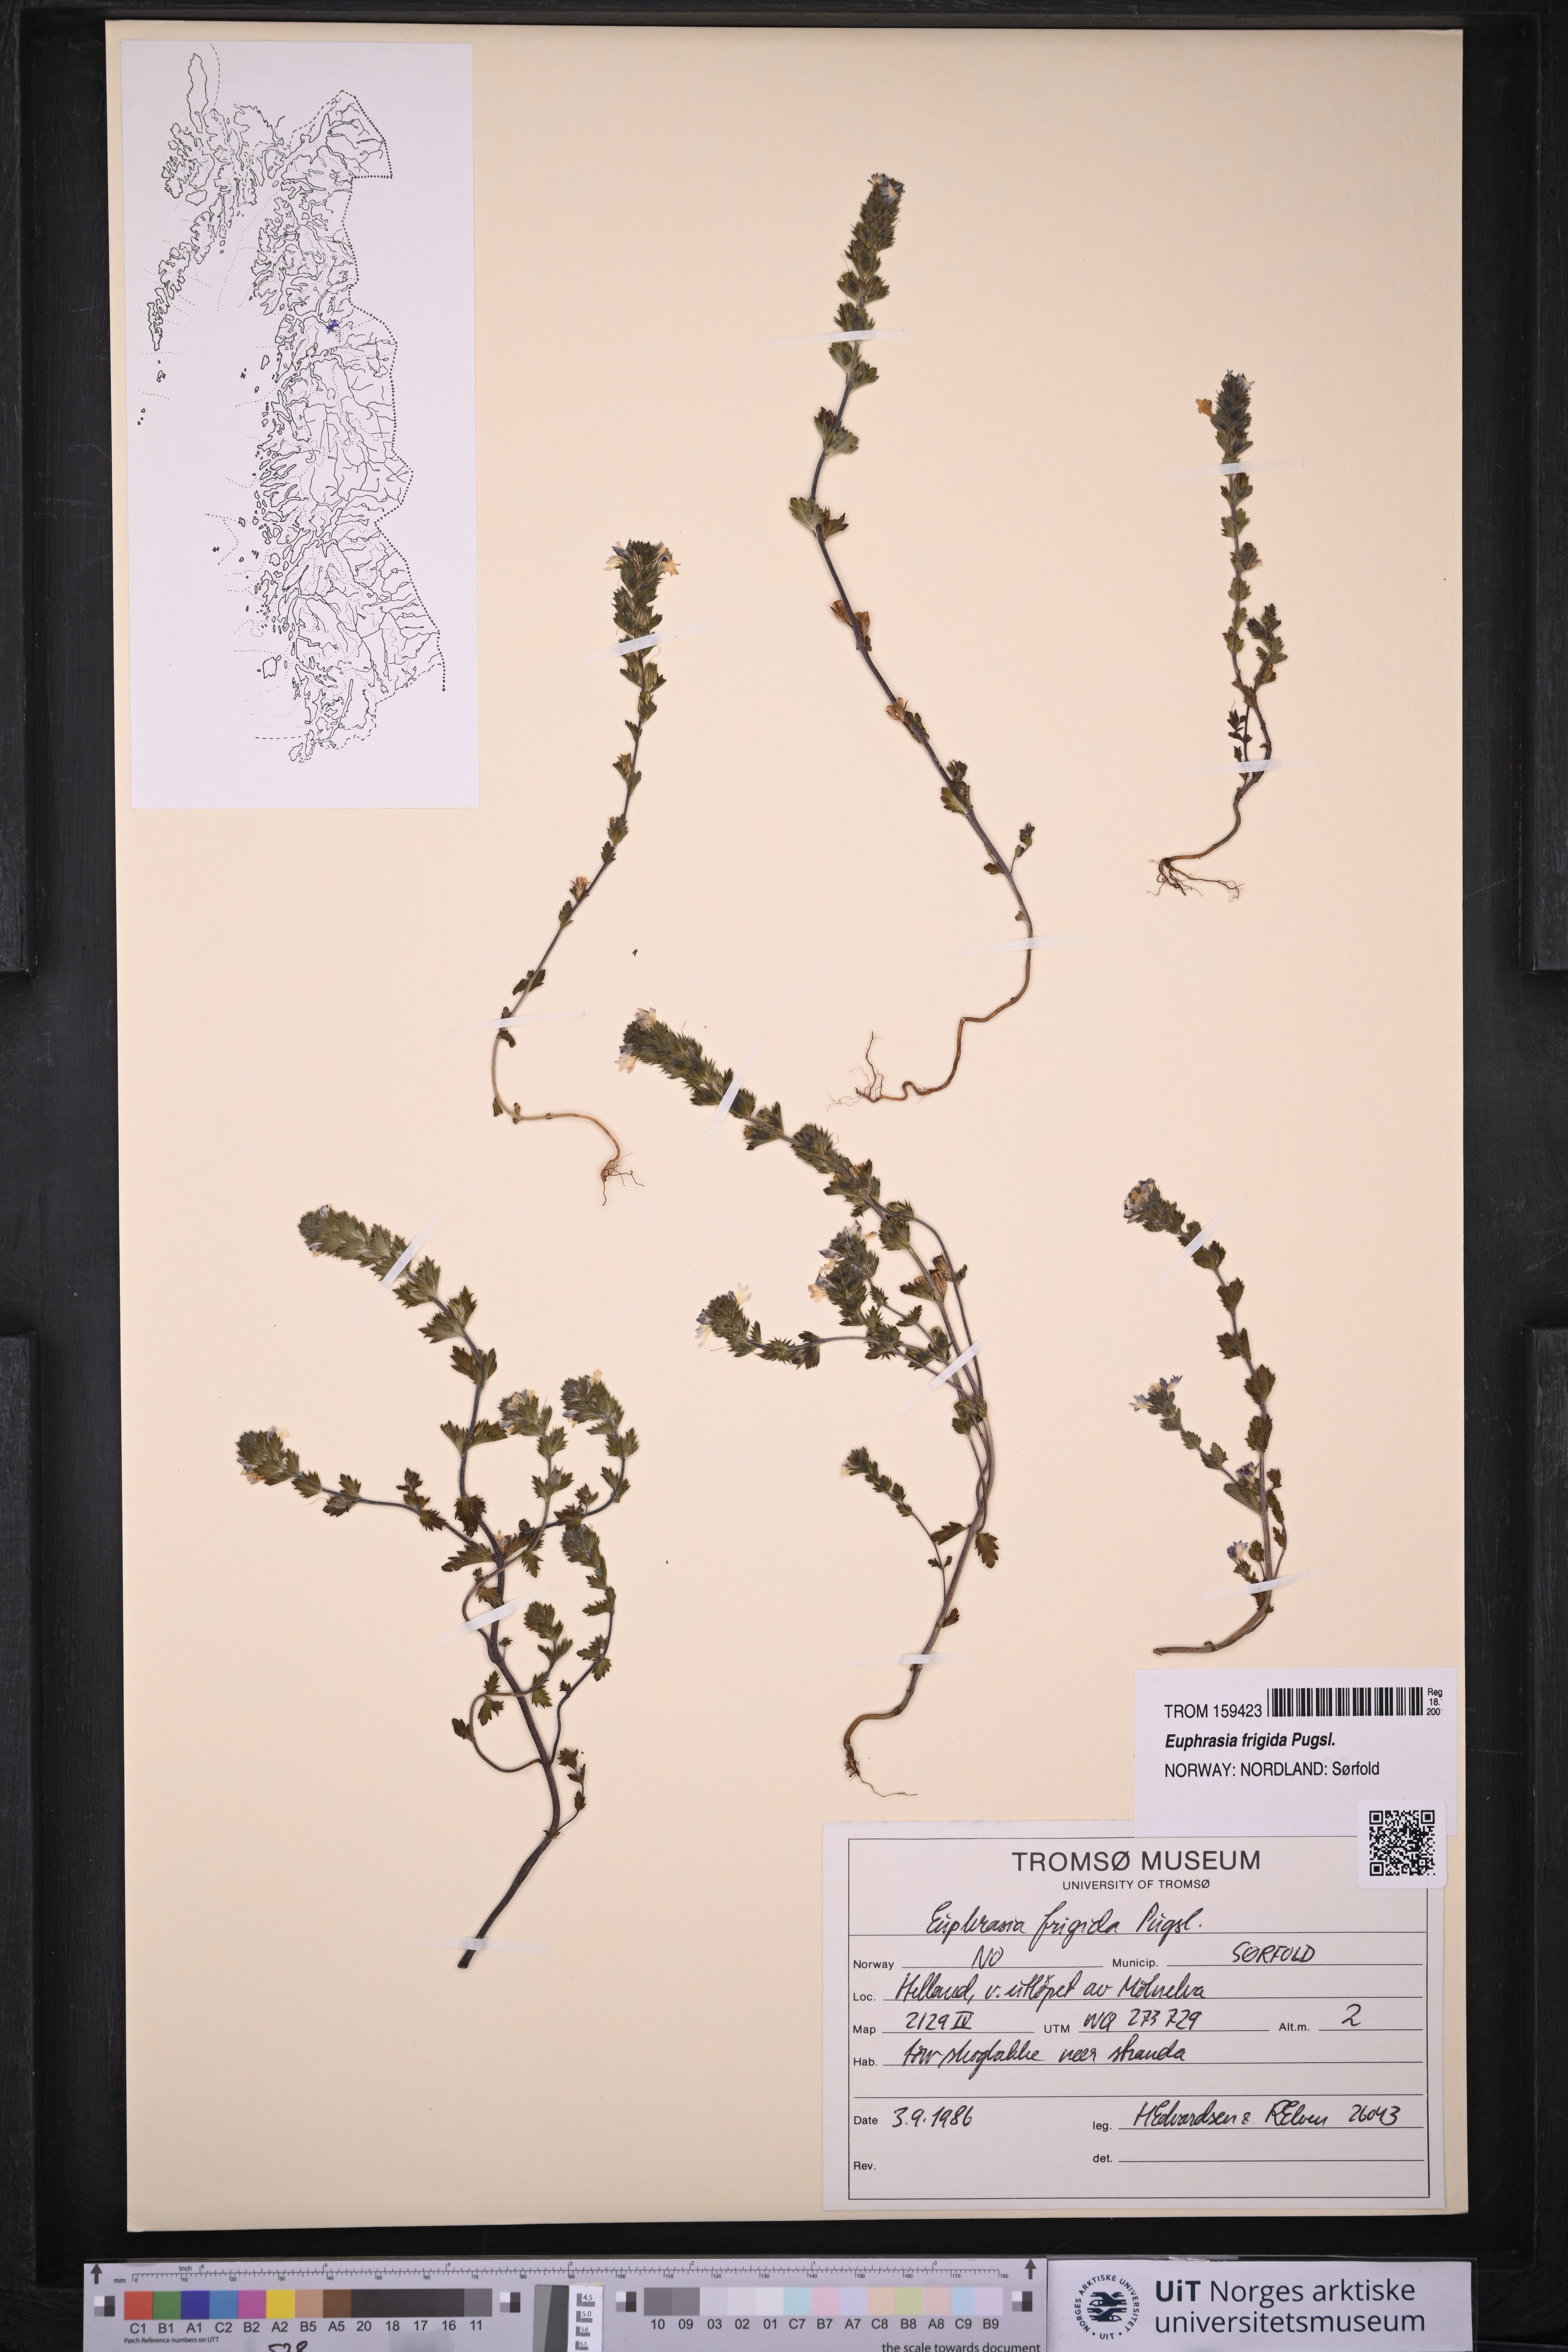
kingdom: Plantae
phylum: Tracheophyta
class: Magnoliopsida
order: Lamiales
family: Orobanchaceae
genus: Euphrasia
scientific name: Euphrasia frigida
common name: An eyebright
